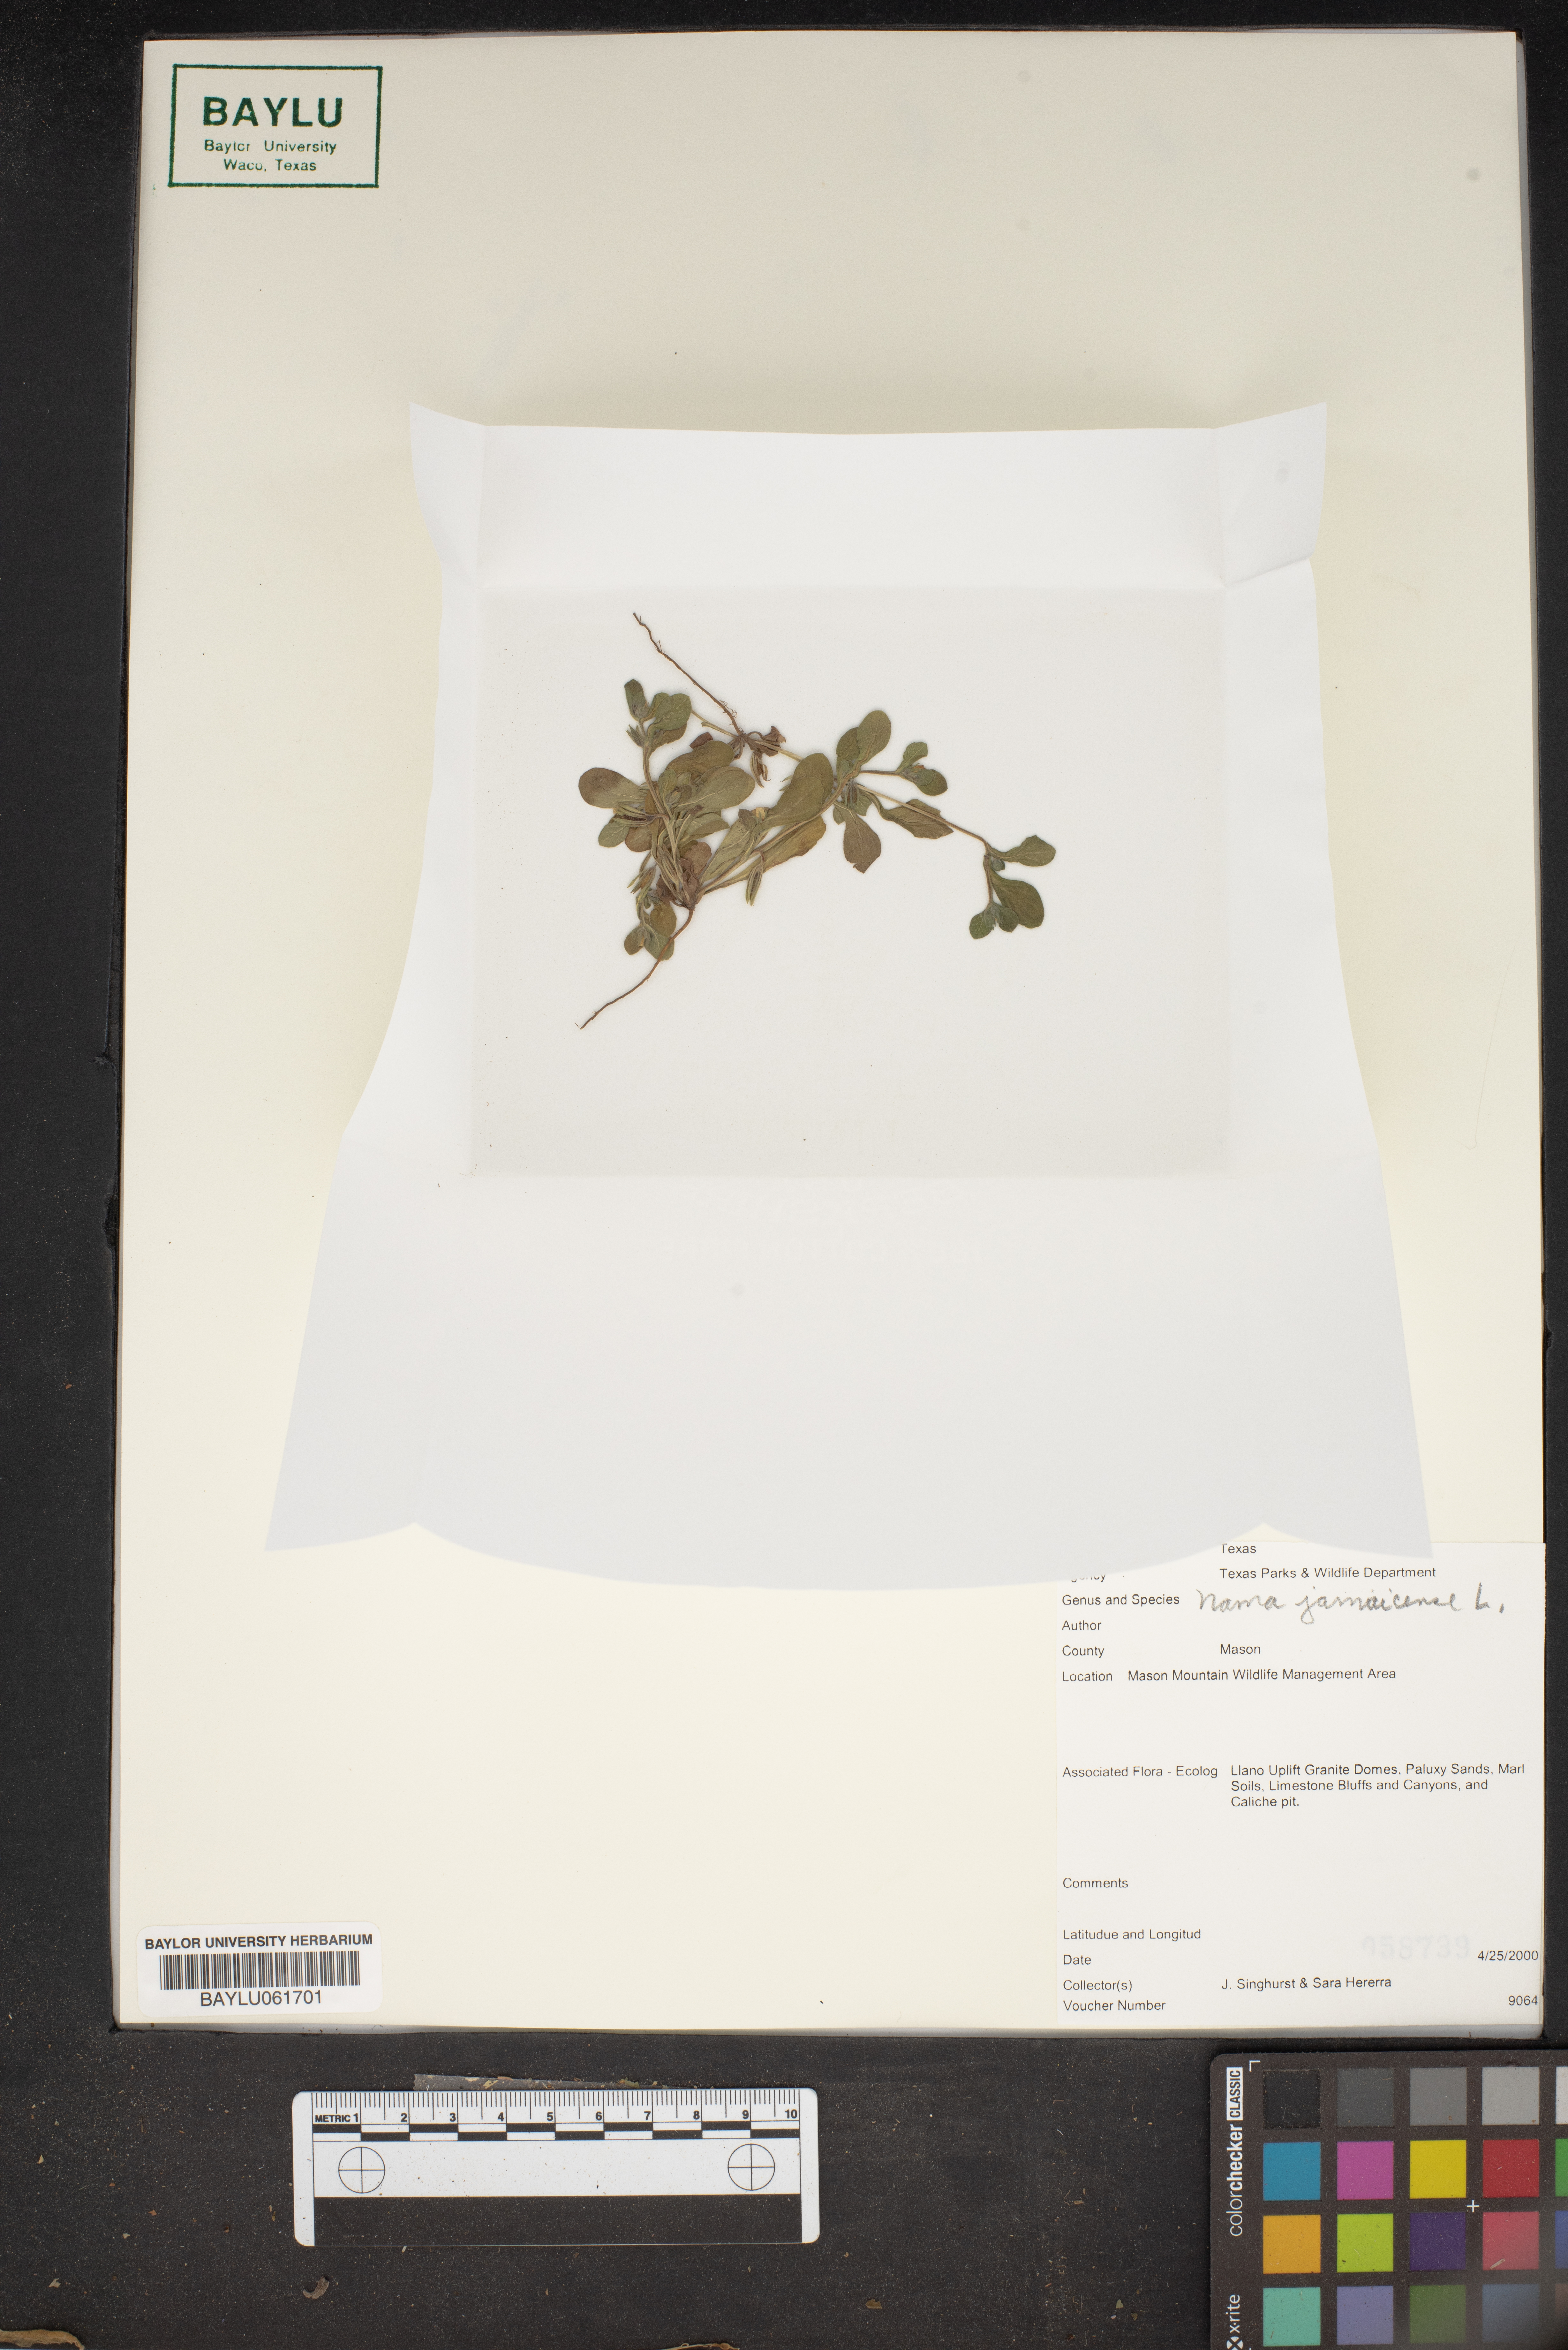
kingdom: Plantae
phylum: Tracheophyta
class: Magnoliopsida
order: Boraginales
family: Namaceae
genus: Nama
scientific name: Nama jamaicense
